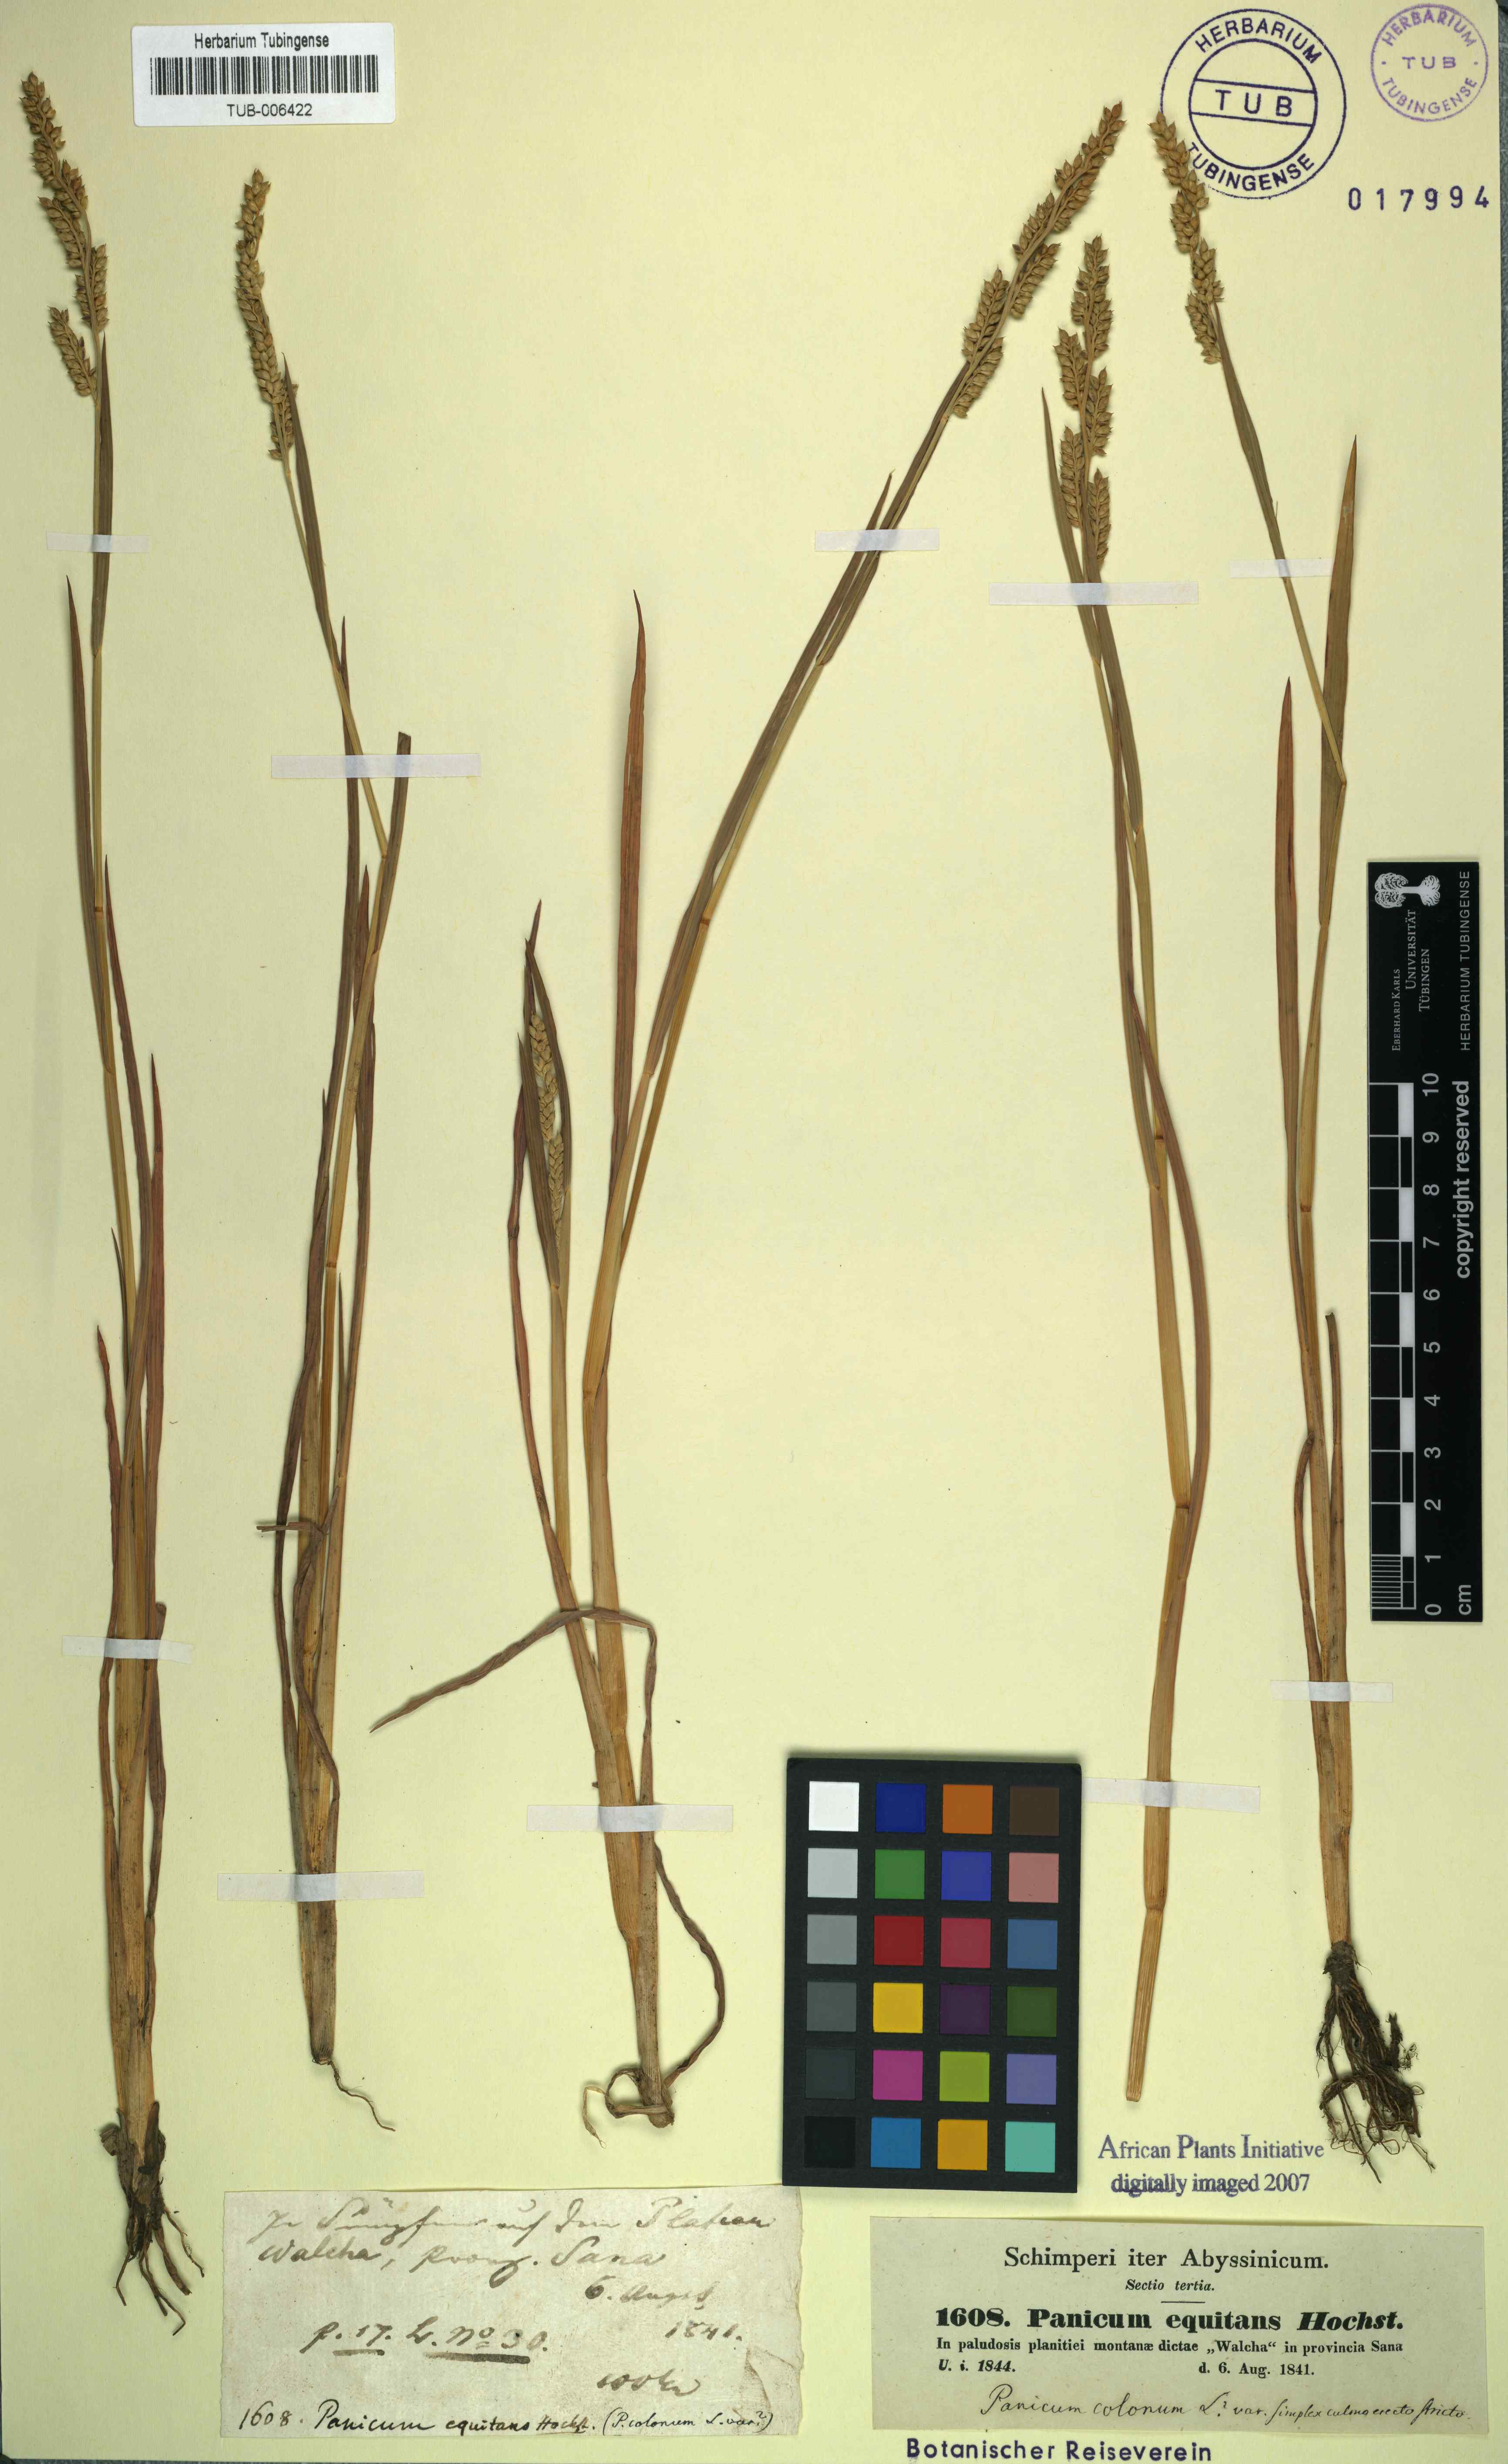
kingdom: Plantae
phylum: Tracheophyta
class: Liliopsida
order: Poales
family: Poaceae
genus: Echinochloa
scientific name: Echinochloa colonum
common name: Jungle rice
